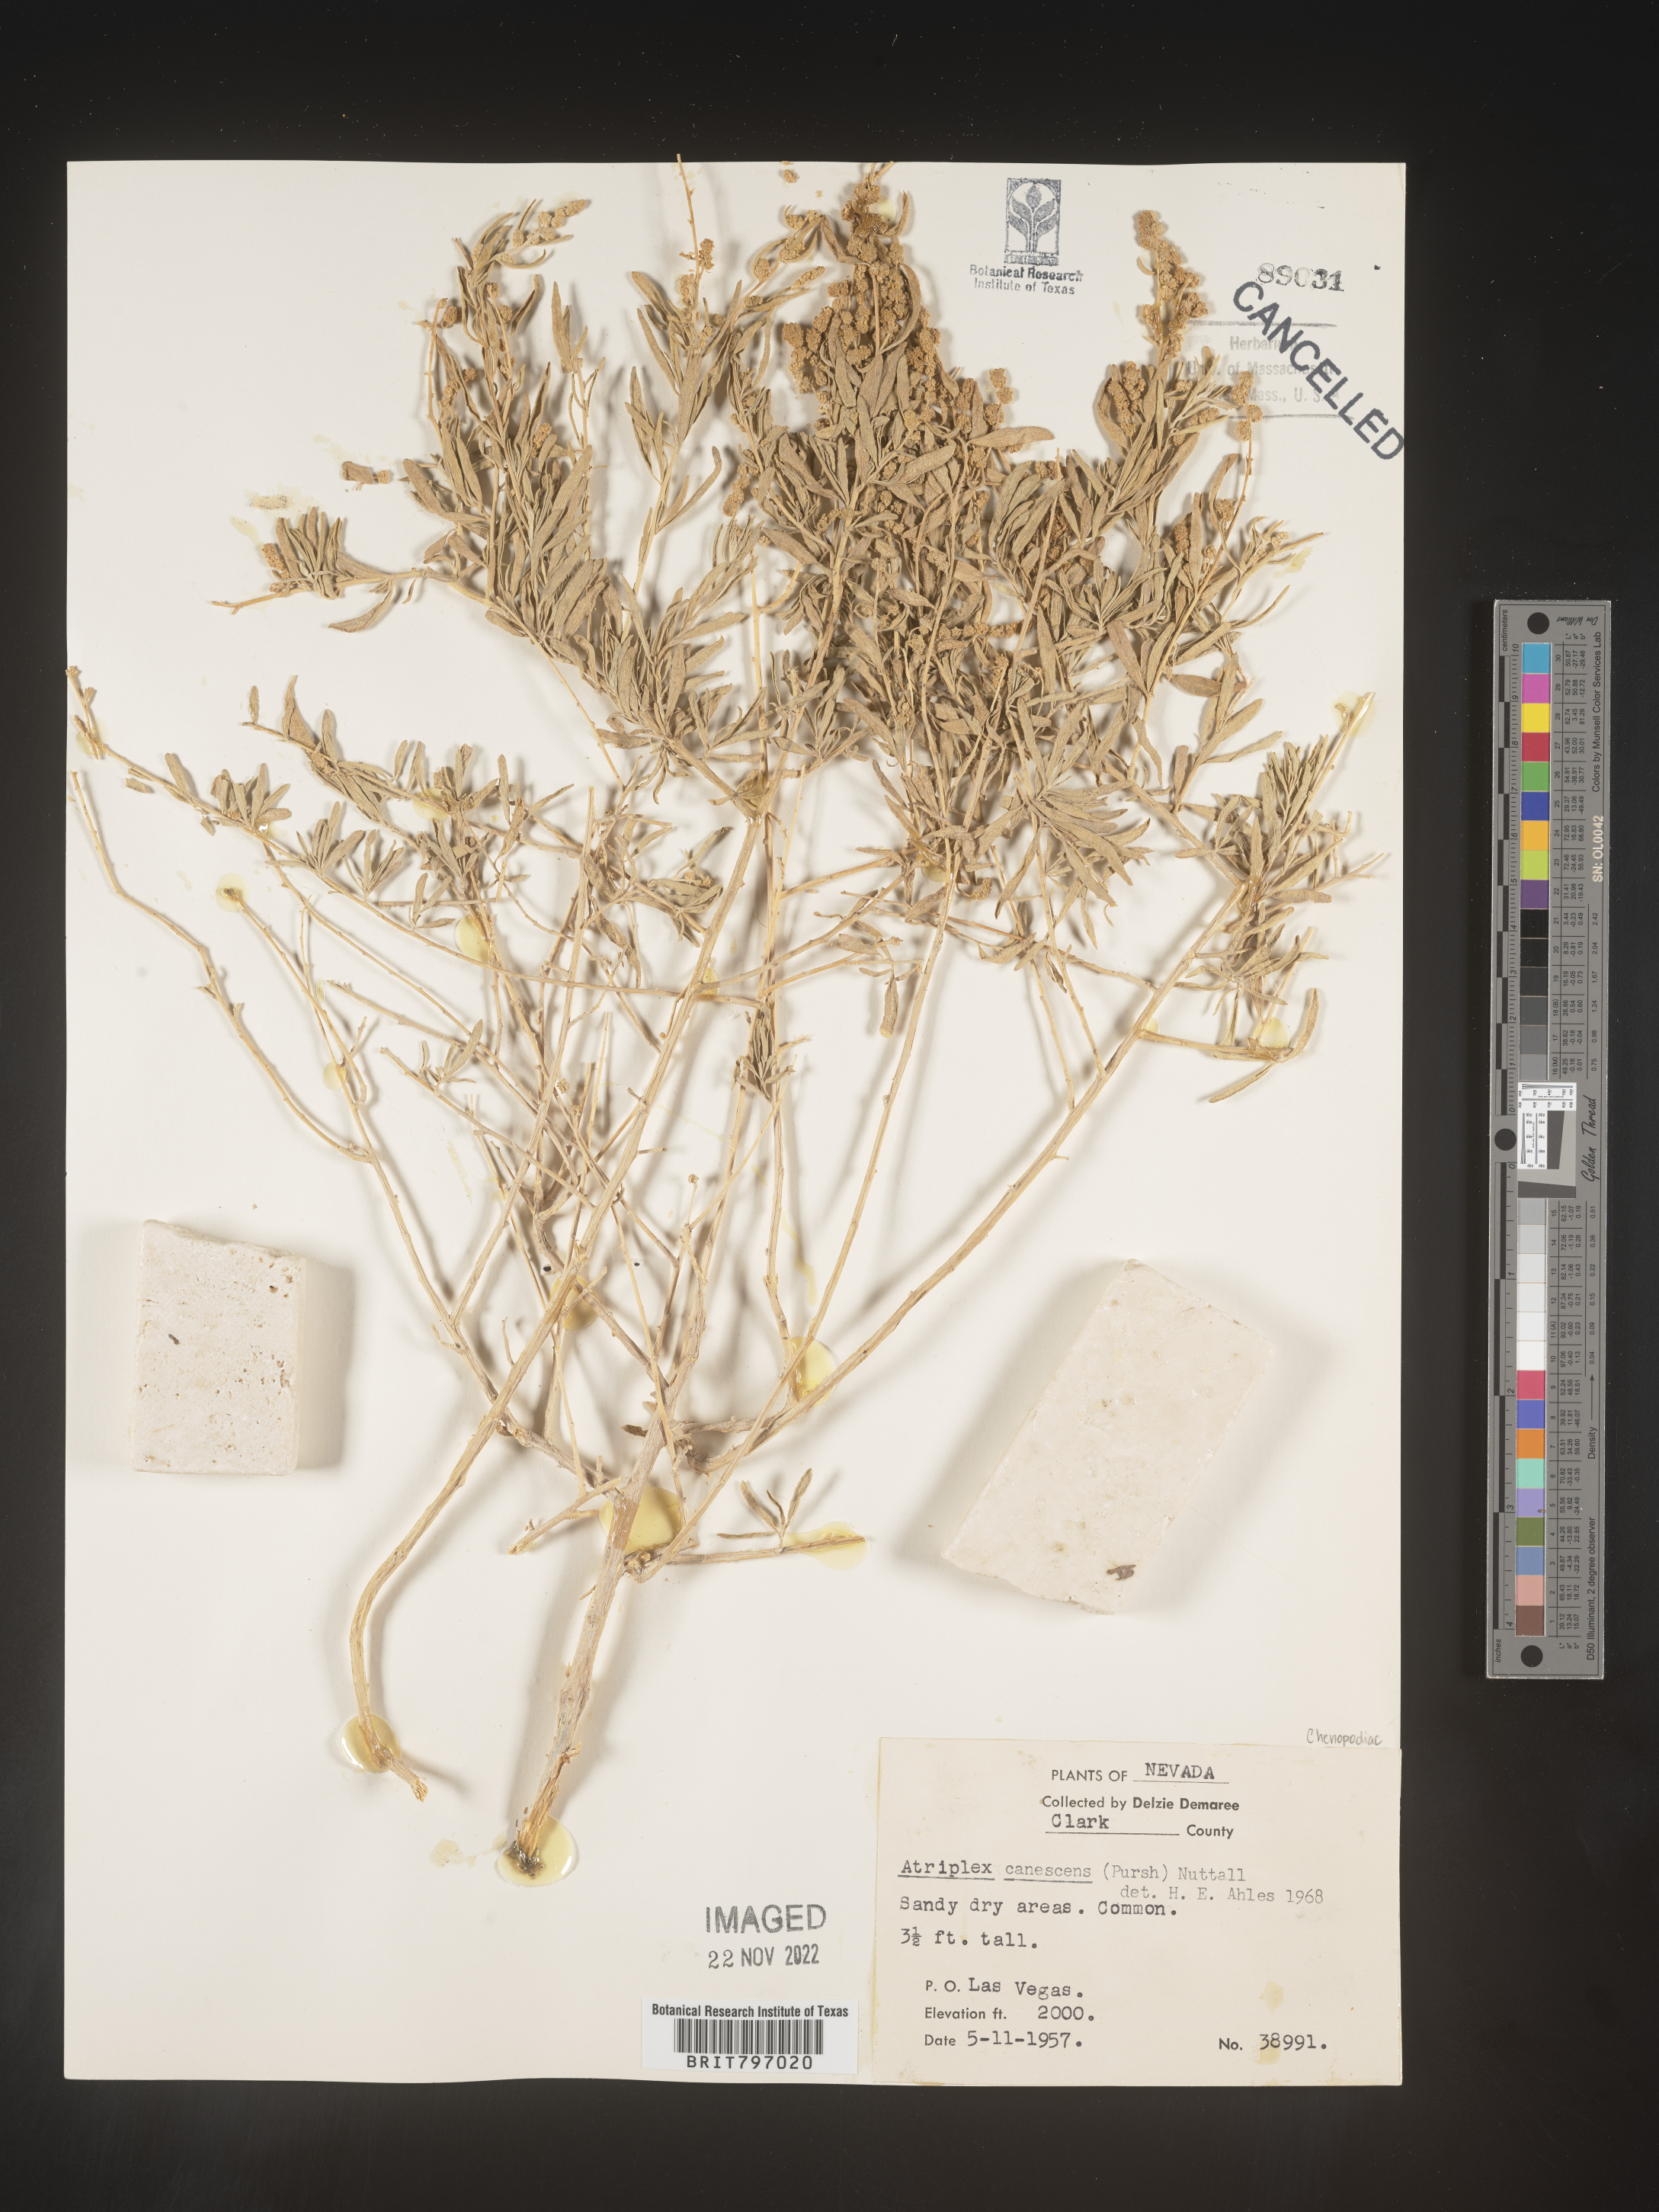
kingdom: Plantae
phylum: Tracheophyta
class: Magnoliopsida
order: Caryophyllales
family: Amaranthaceae
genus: Atriplex
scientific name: Atriplex canescens
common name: Four-wing saltbush
